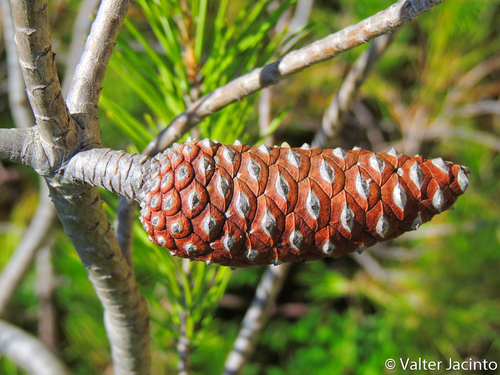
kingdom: Plantae
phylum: Tracheophyta
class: Pinopsida
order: Pinales
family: Pinaceae
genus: Pinus
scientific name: Pinus halepensis
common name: Aleppo pine
